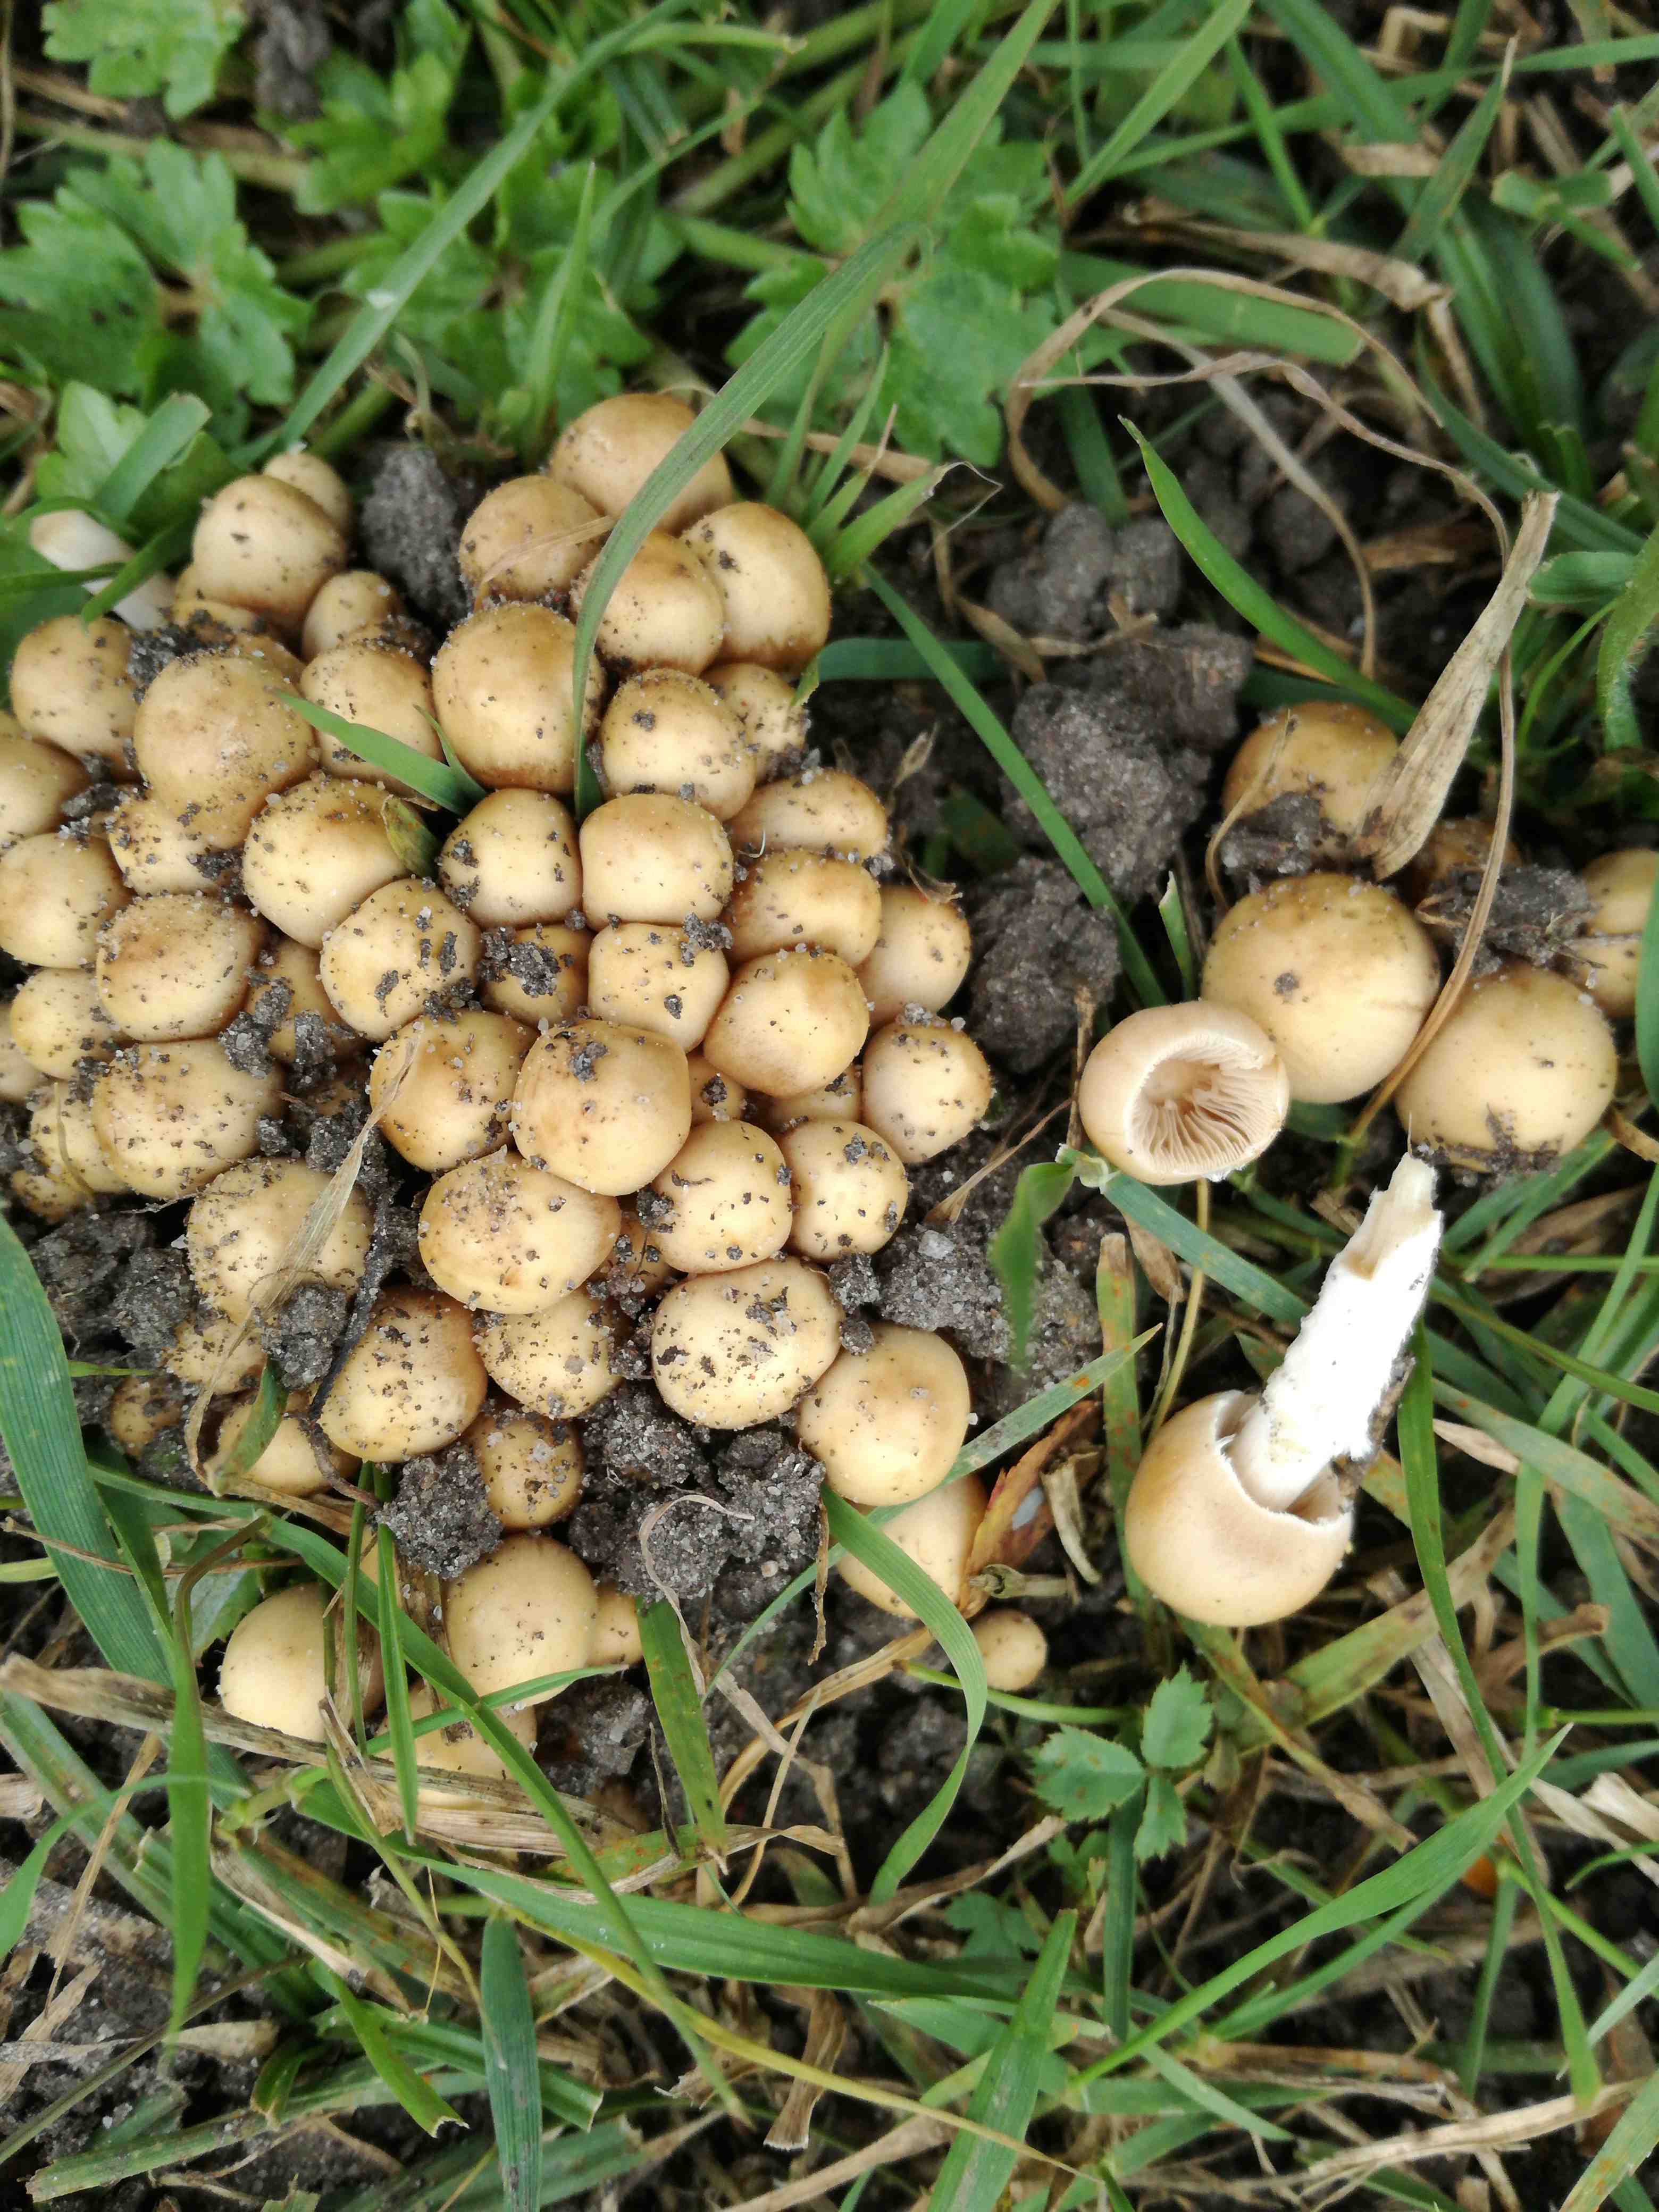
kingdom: Fungi
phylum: Basidiomycota
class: Agaricomycetes
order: Agaricales
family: Psathyrellaceae
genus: Britzelmayria
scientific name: Britzelmayria multipedata
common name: knippe-mørkhat
